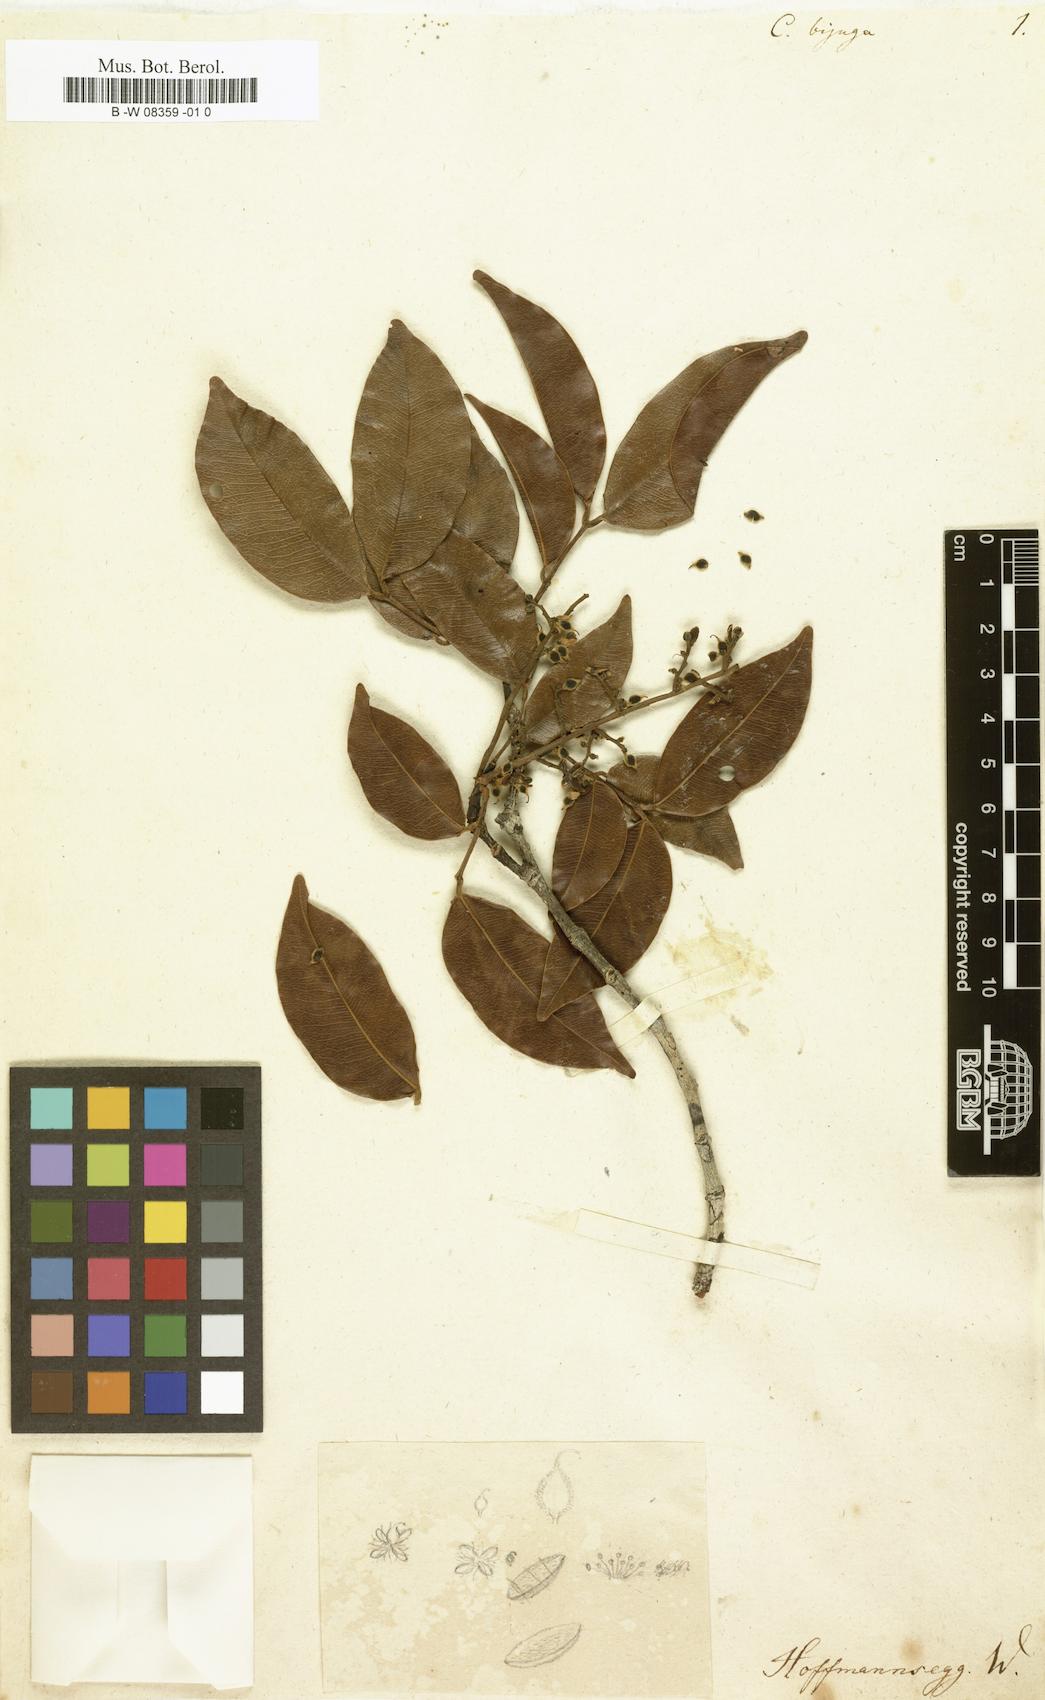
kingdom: Plantae
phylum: Tracheophyta
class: Magnoliopsida
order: Fabales
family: Fabaceae
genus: Copaifera
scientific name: Copaifera guianensis
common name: Copaiba
